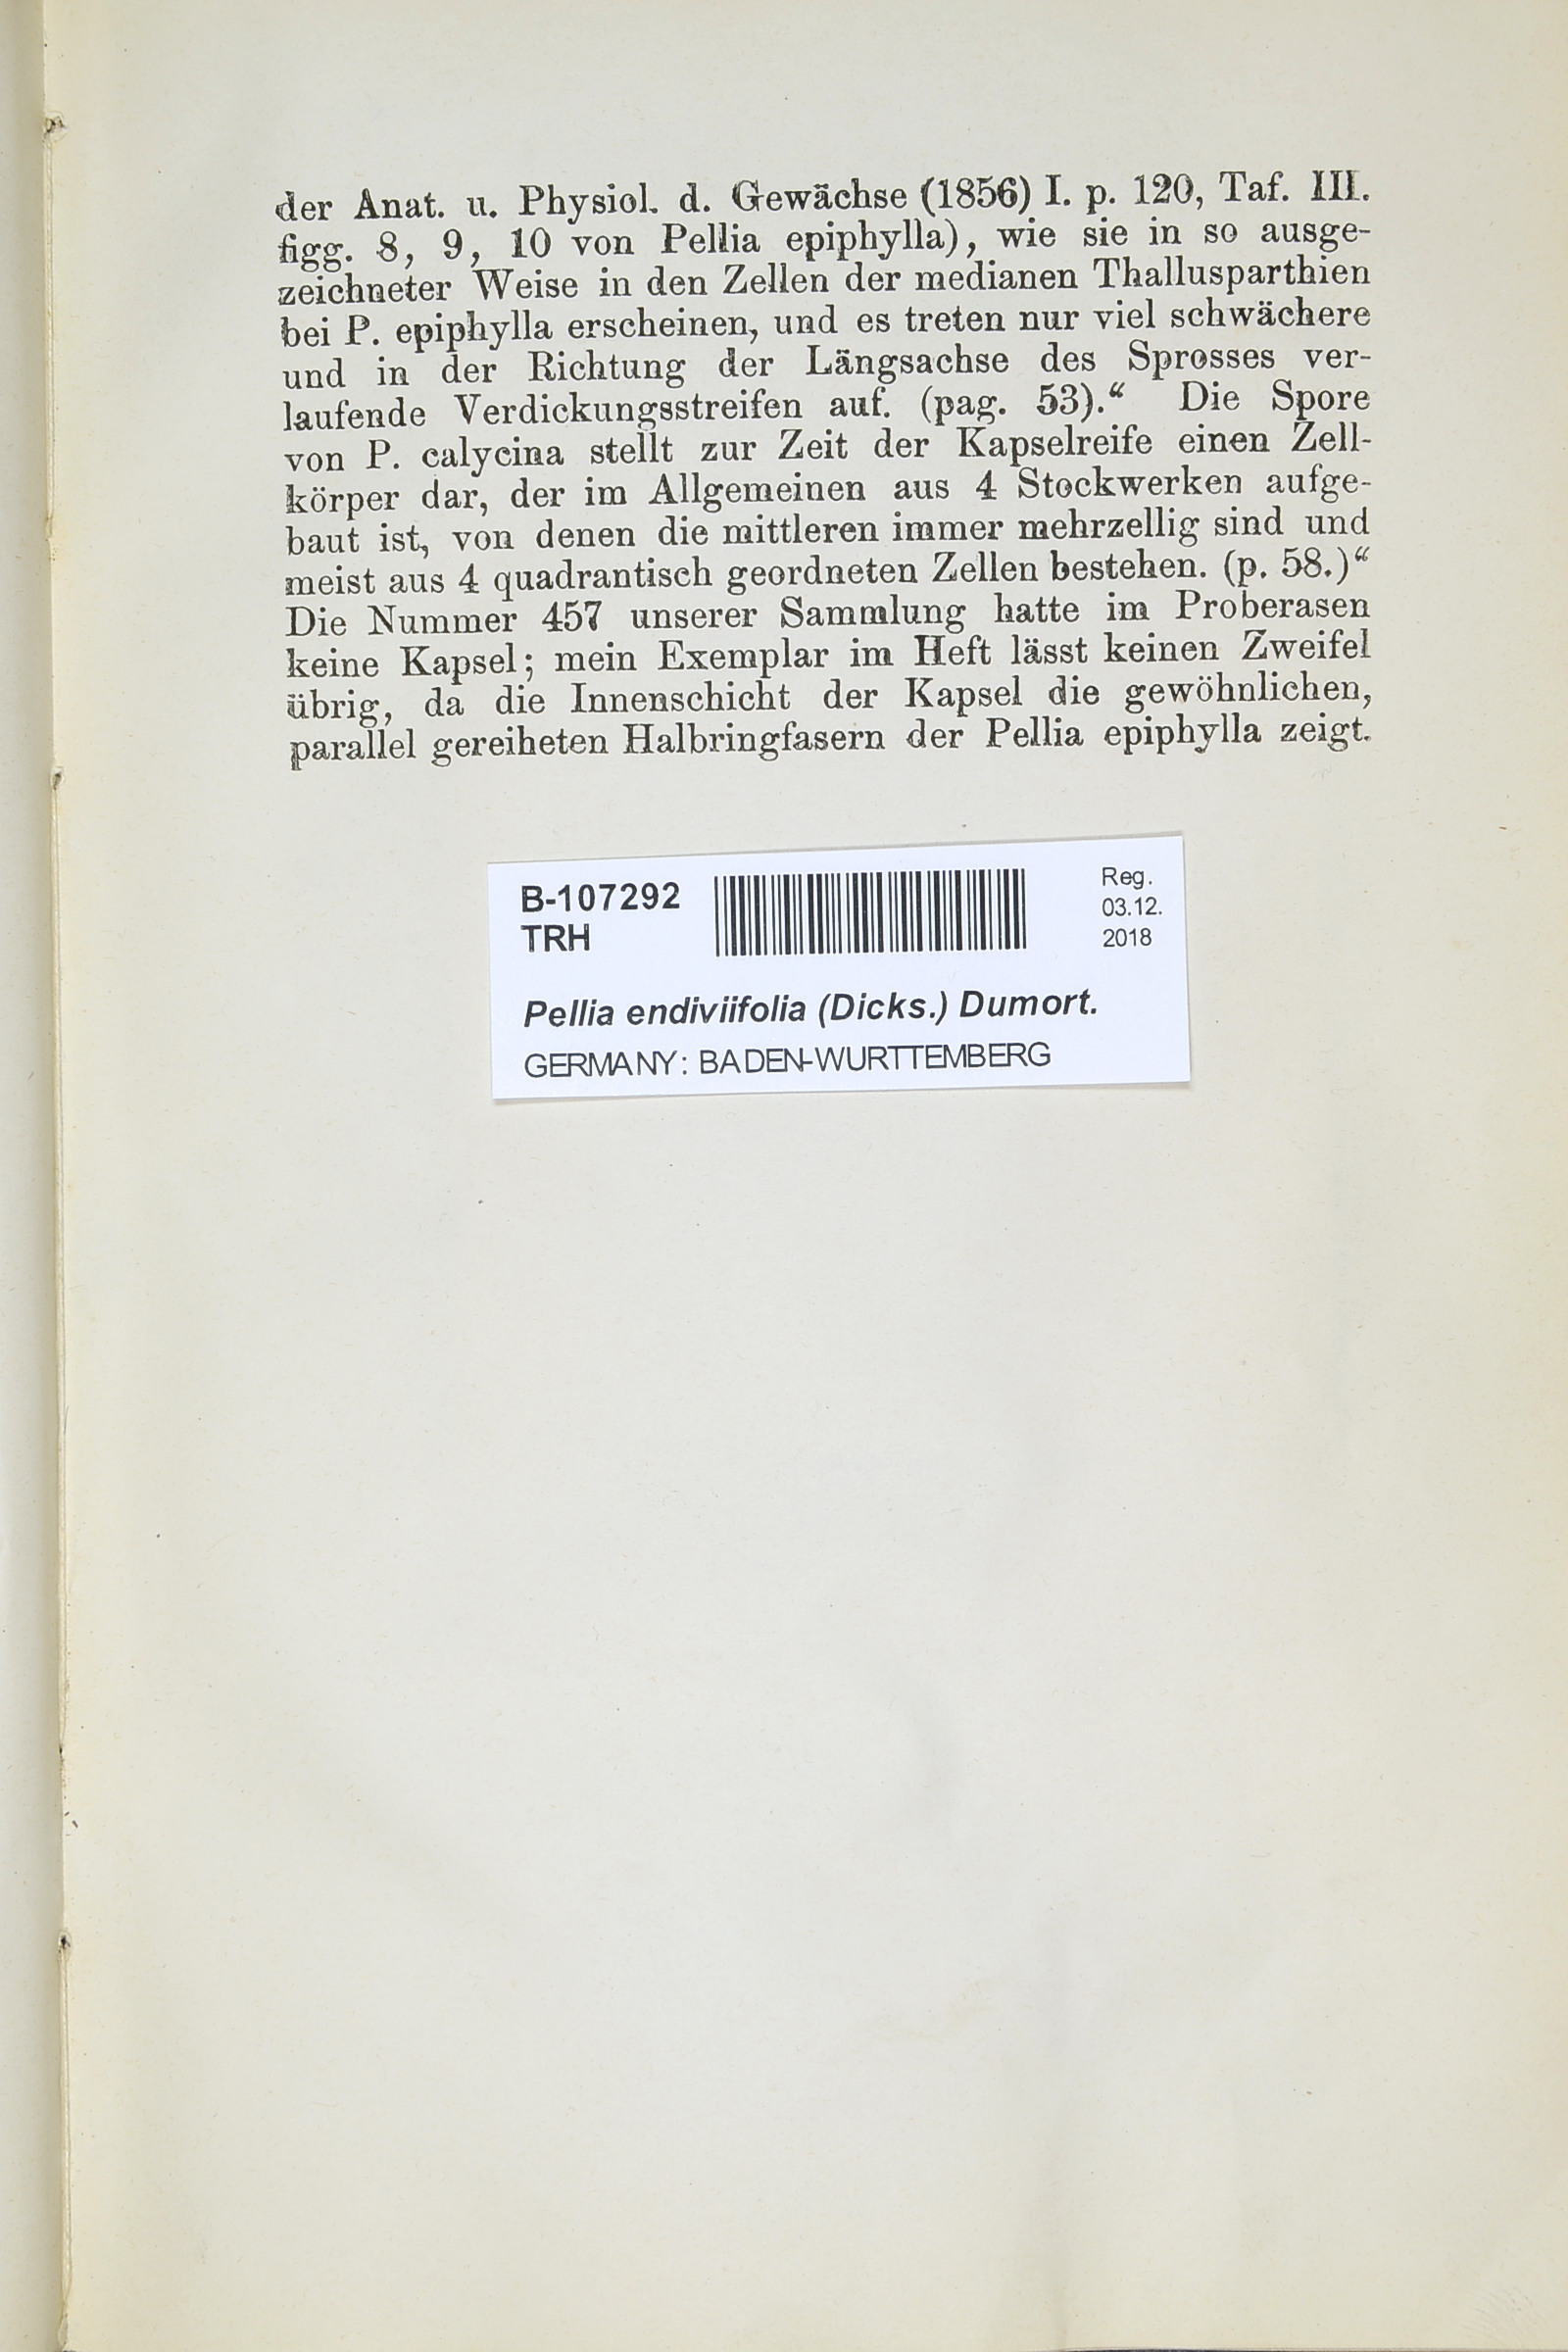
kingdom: Plantae
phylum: Marchantiophyta
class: Jungermanniopsida
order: Pelliales
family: Pelliaceae
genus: Apopellia
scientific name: Apopellia endiviifolia
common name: Endive pellia
